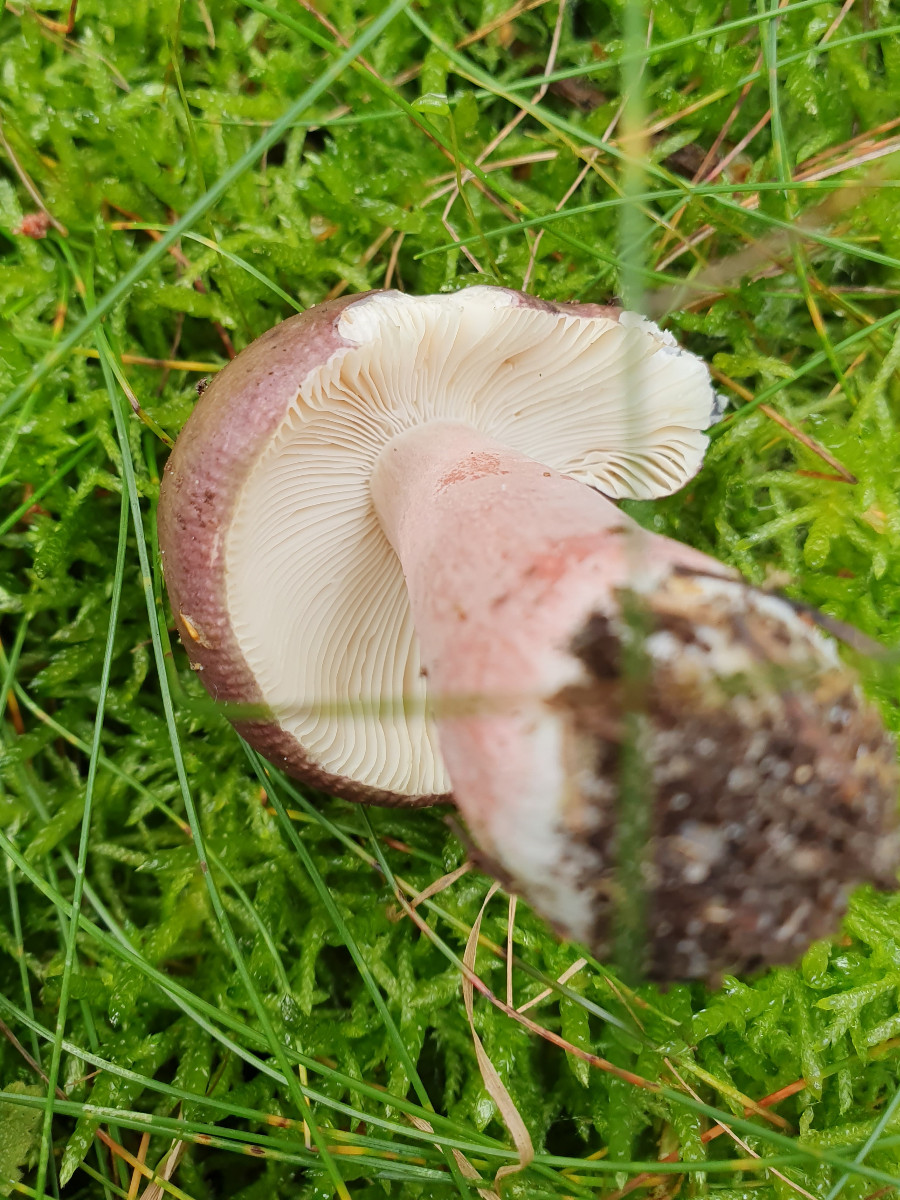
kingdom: Fungi
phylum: Basidiomycota
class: Agaricomycetes
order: Russulales
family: Russulaceae
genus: Russula
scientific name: Russula queletii
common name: Quélets skørhat
